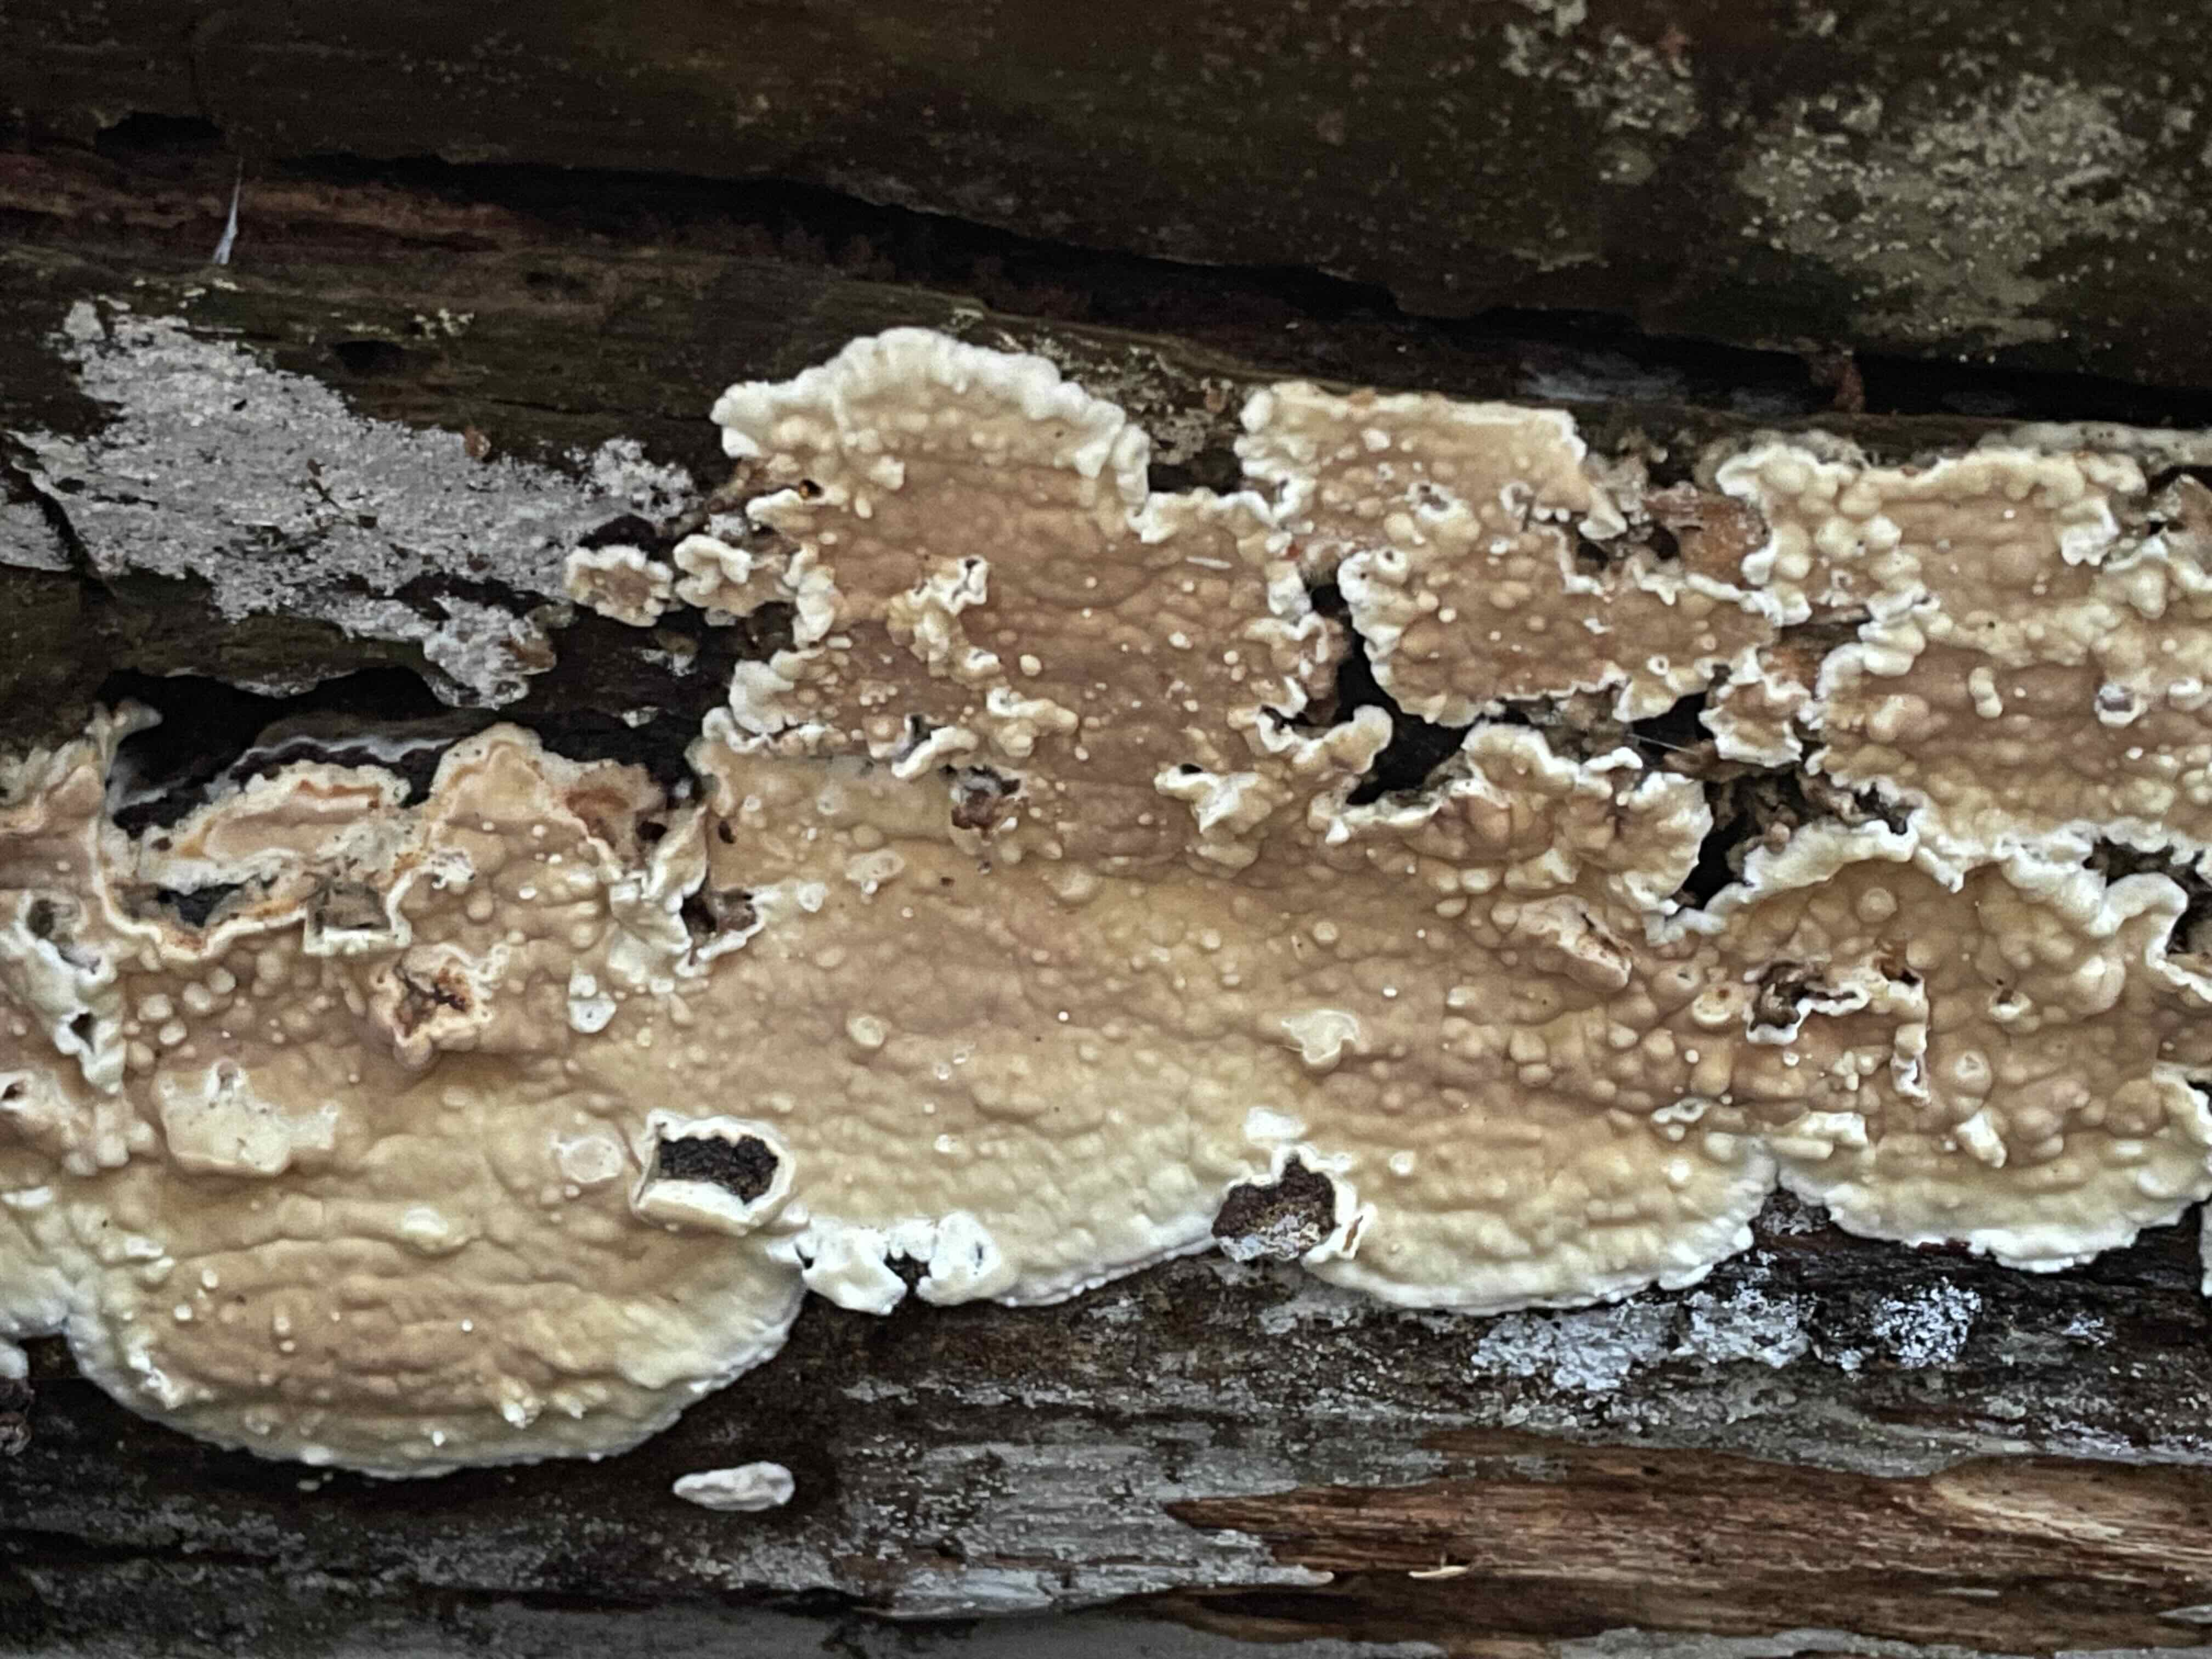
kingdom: Fungi
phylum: Basidiomycota
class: Agaricomycetes
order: Polyporales
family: Dacryobolaceae
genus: Dacryobolus
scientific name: Dacryobolus karstenii
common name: glat vulkanskorpe
